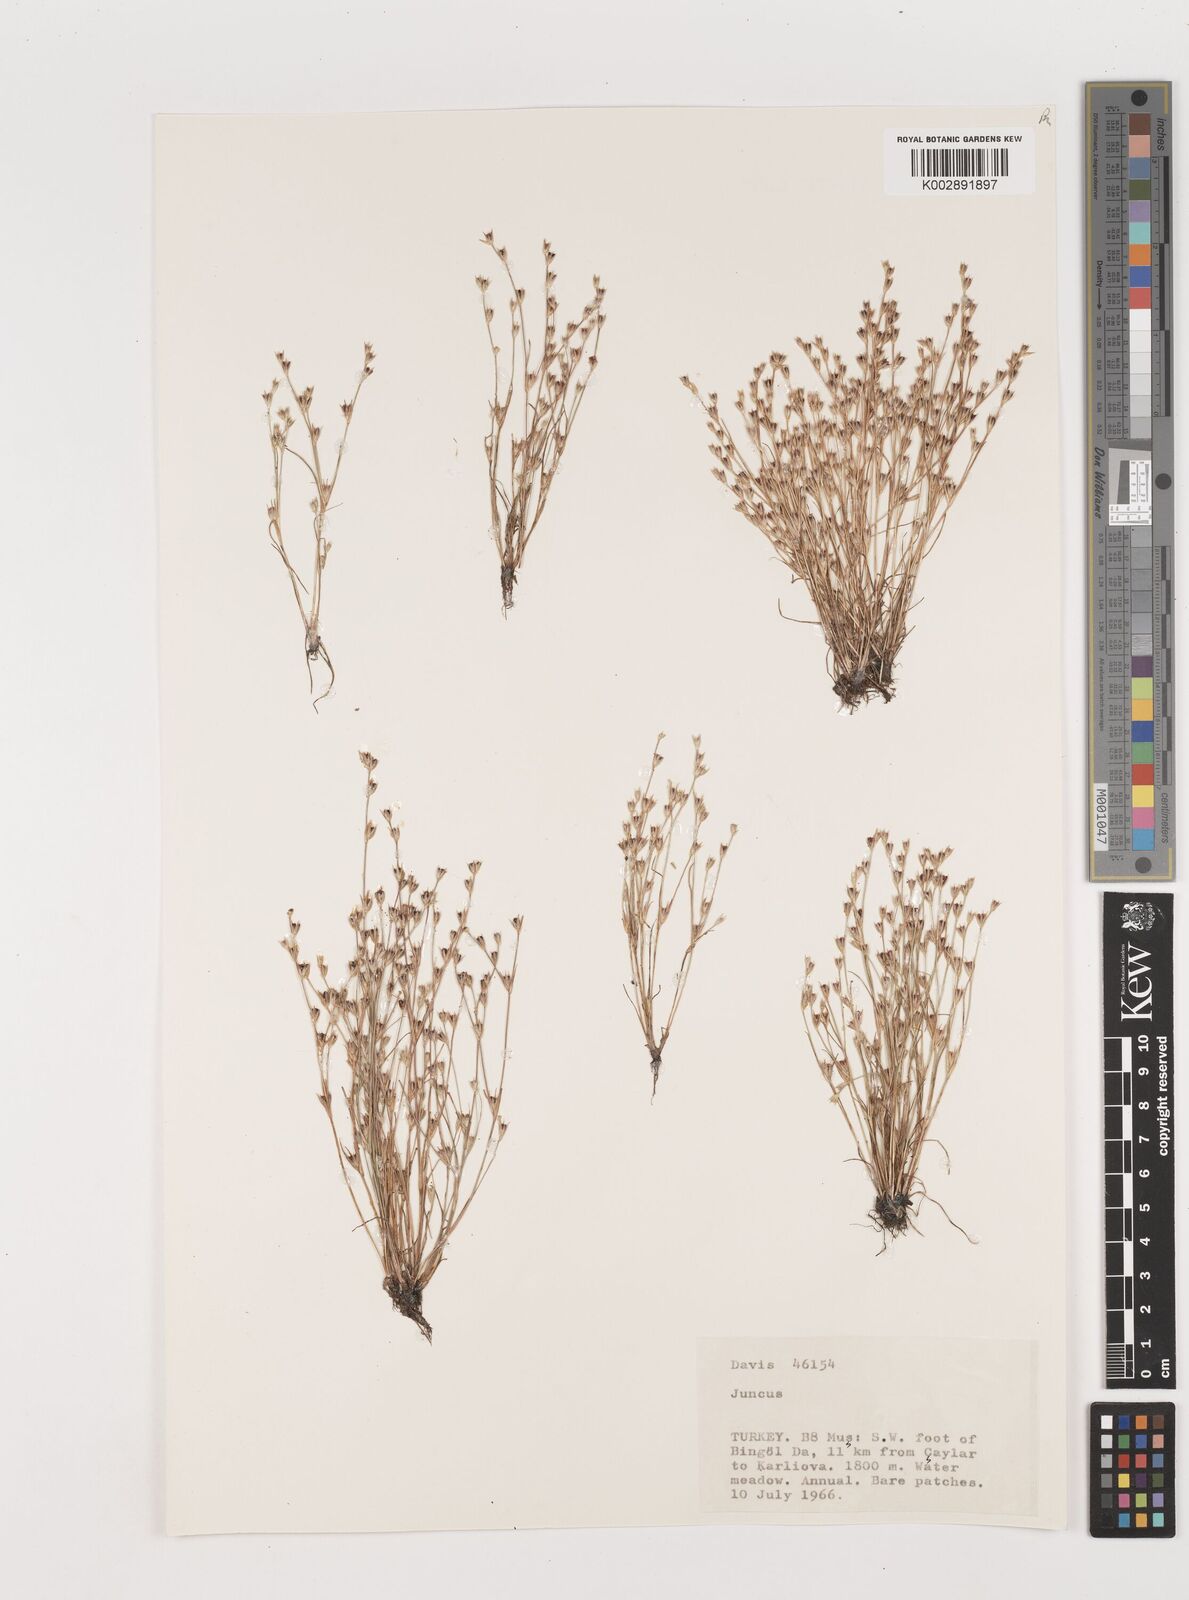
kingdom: Plantae
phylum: Tracheophyta
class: Liliopsida
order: Poales
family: Juncaceae
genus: Juncus
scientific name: Juncus
